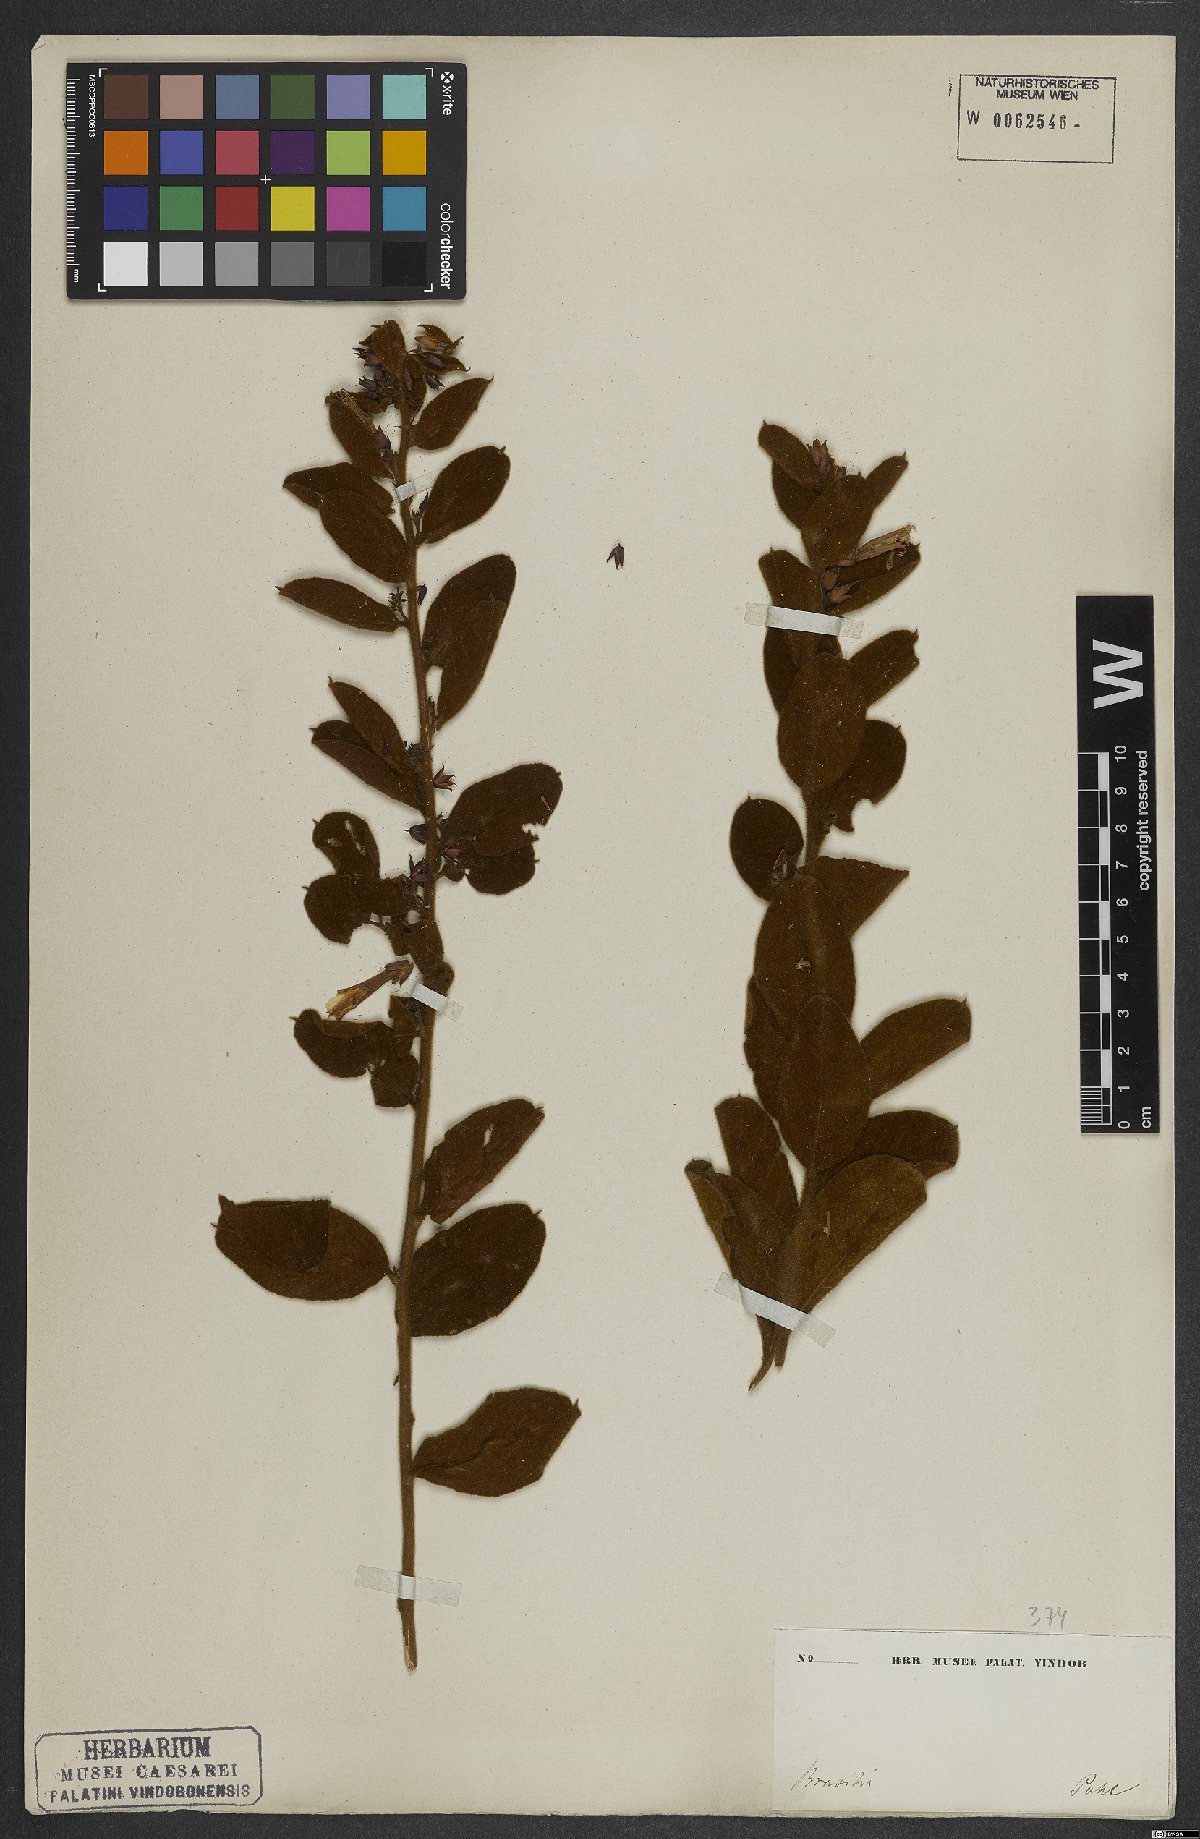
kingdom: Plantae
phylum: Tracheophyta
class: Magnoliopsida
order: Solanales
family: Convolvulaceae
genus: Jacquemontia
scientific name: Jacquemontia spiciflora
